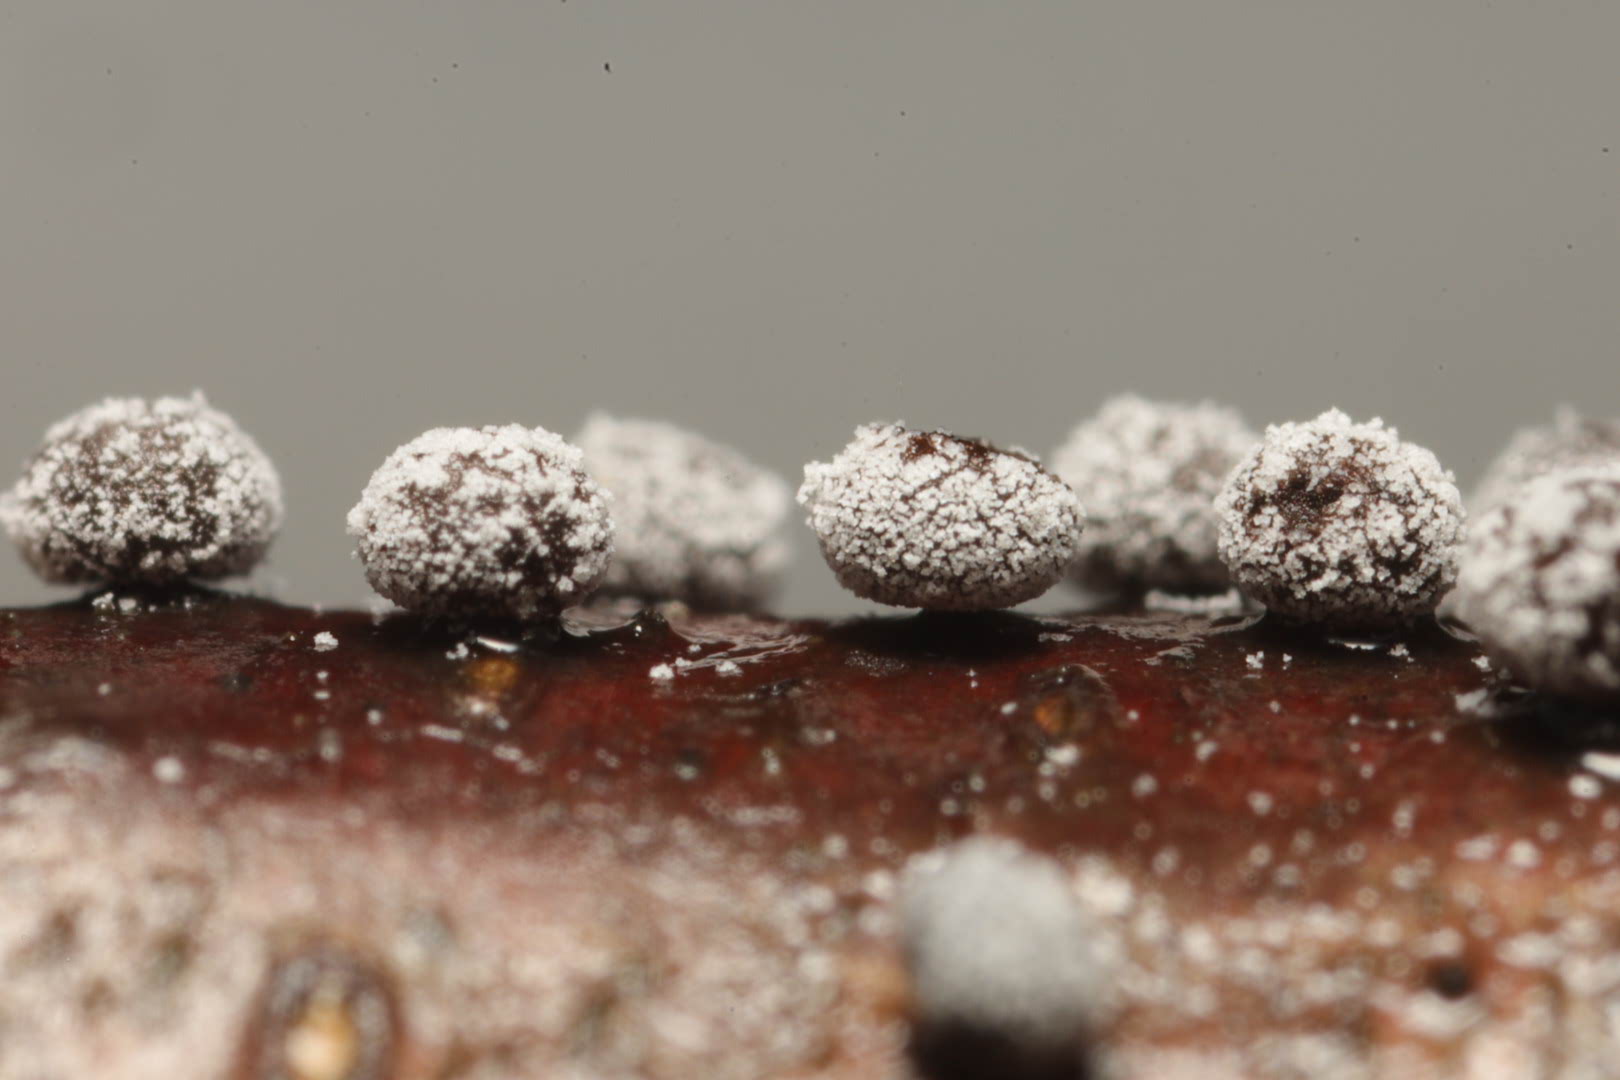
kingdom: Protozoa
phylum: Mycetozoa
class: Myxomycetes
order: Physarales
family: Physaraceae
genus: Physarum
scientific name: Physarum
